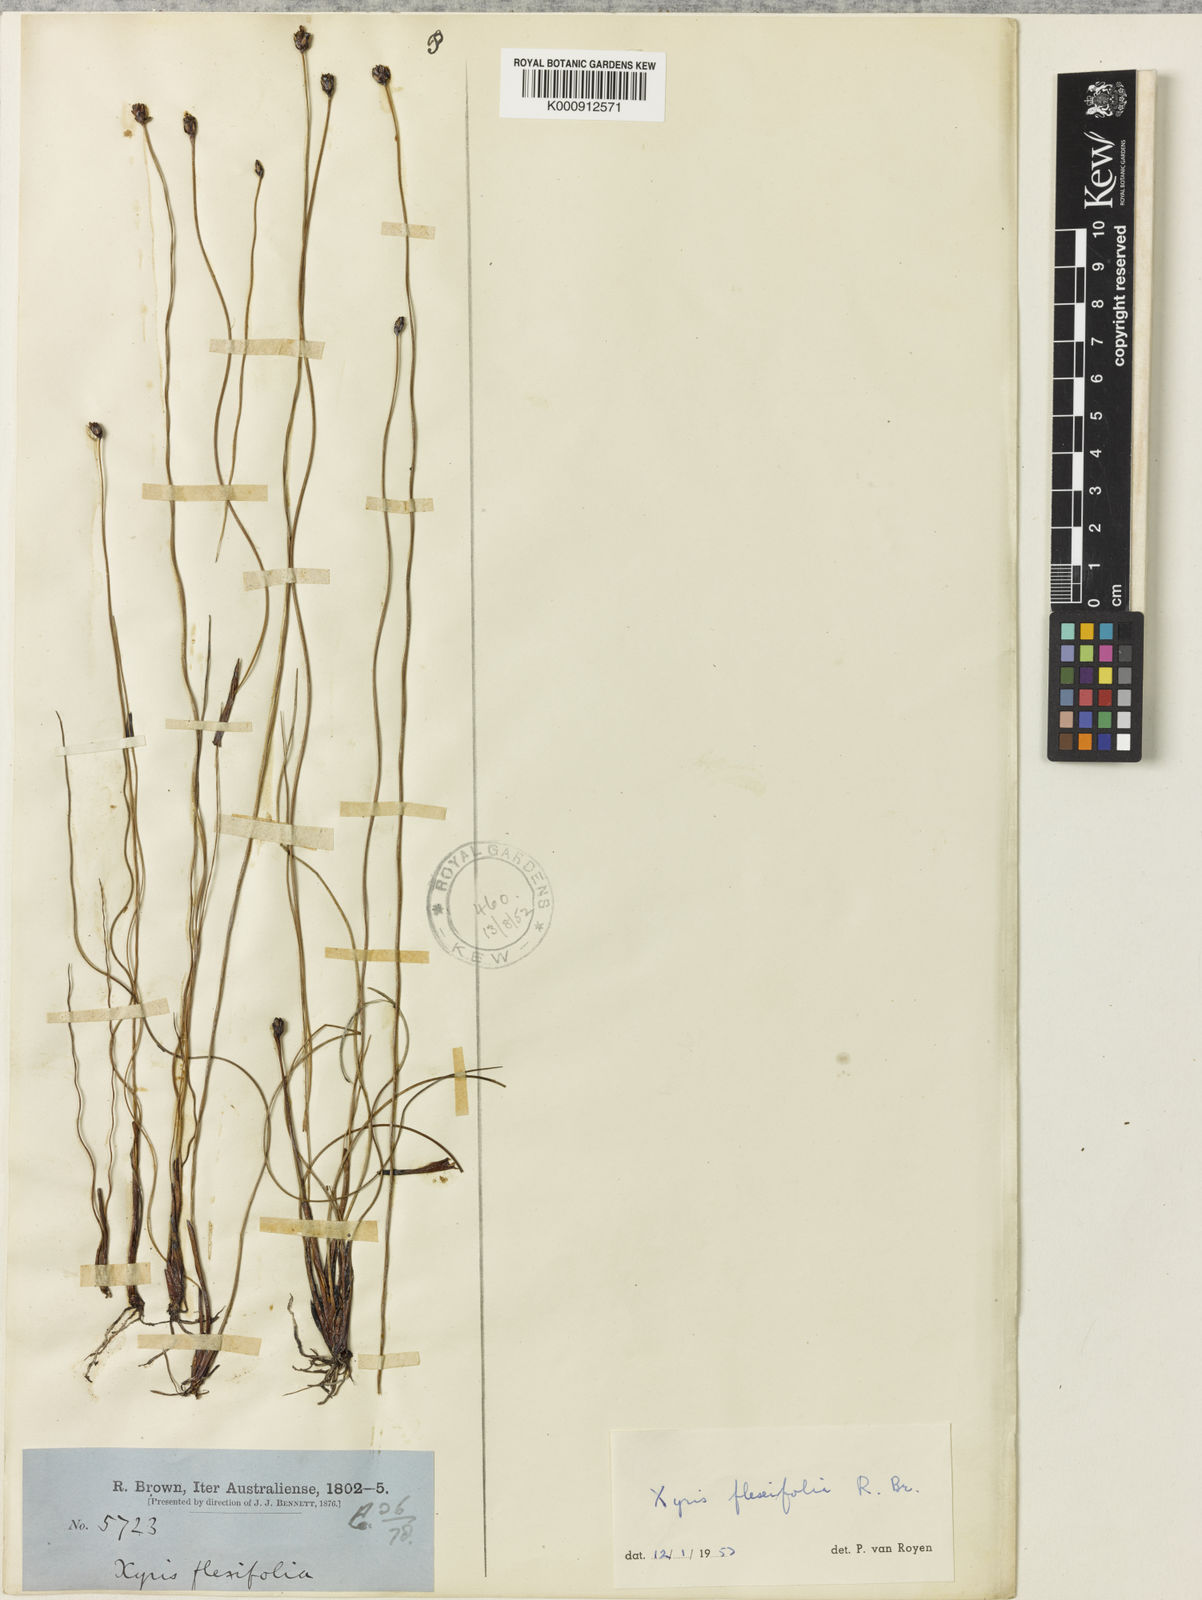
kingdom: Plantae
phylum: Tracheophyta
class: Liliopsida
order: Poales
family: Xyridaceae
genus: Xyris
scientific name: Xyris flexifolia
